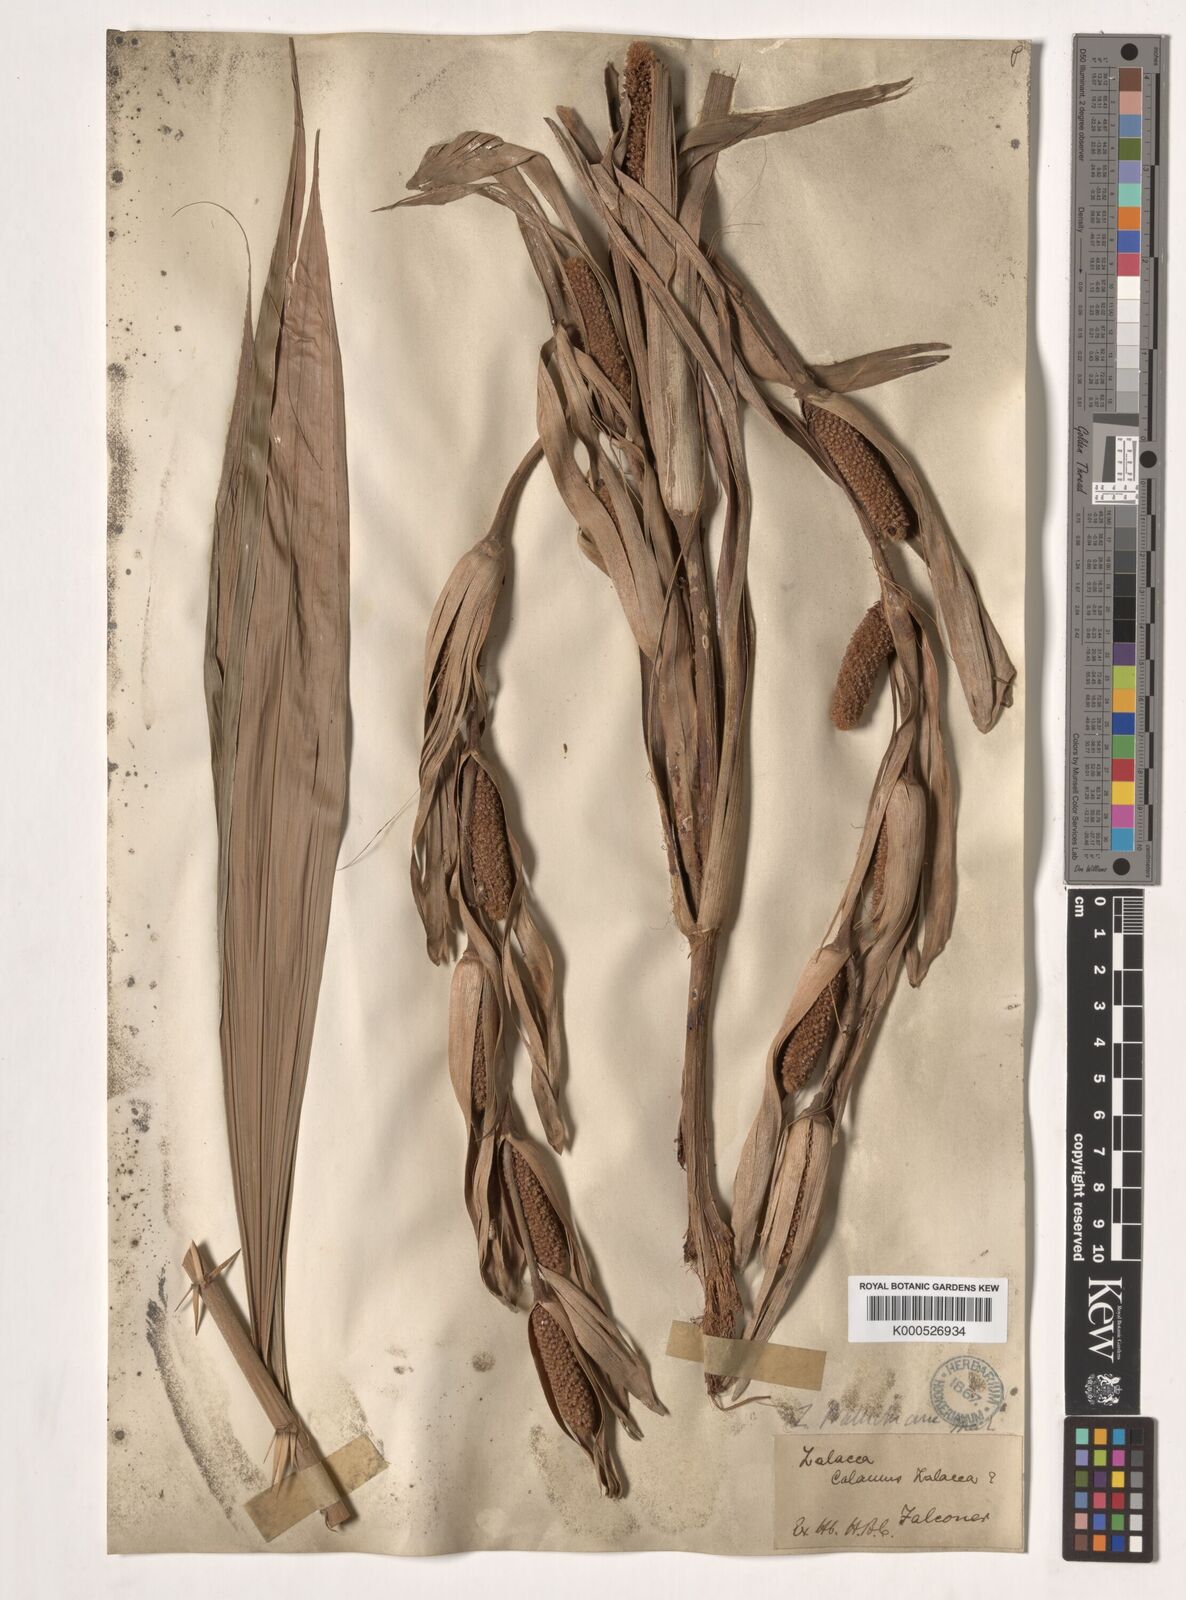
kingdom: Plantae
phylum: Tracheophyta
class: Liliopsida
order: Arecales
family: Arecaceae
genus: Salacca
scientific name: Salacca wallichiana
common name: Rakum palm
